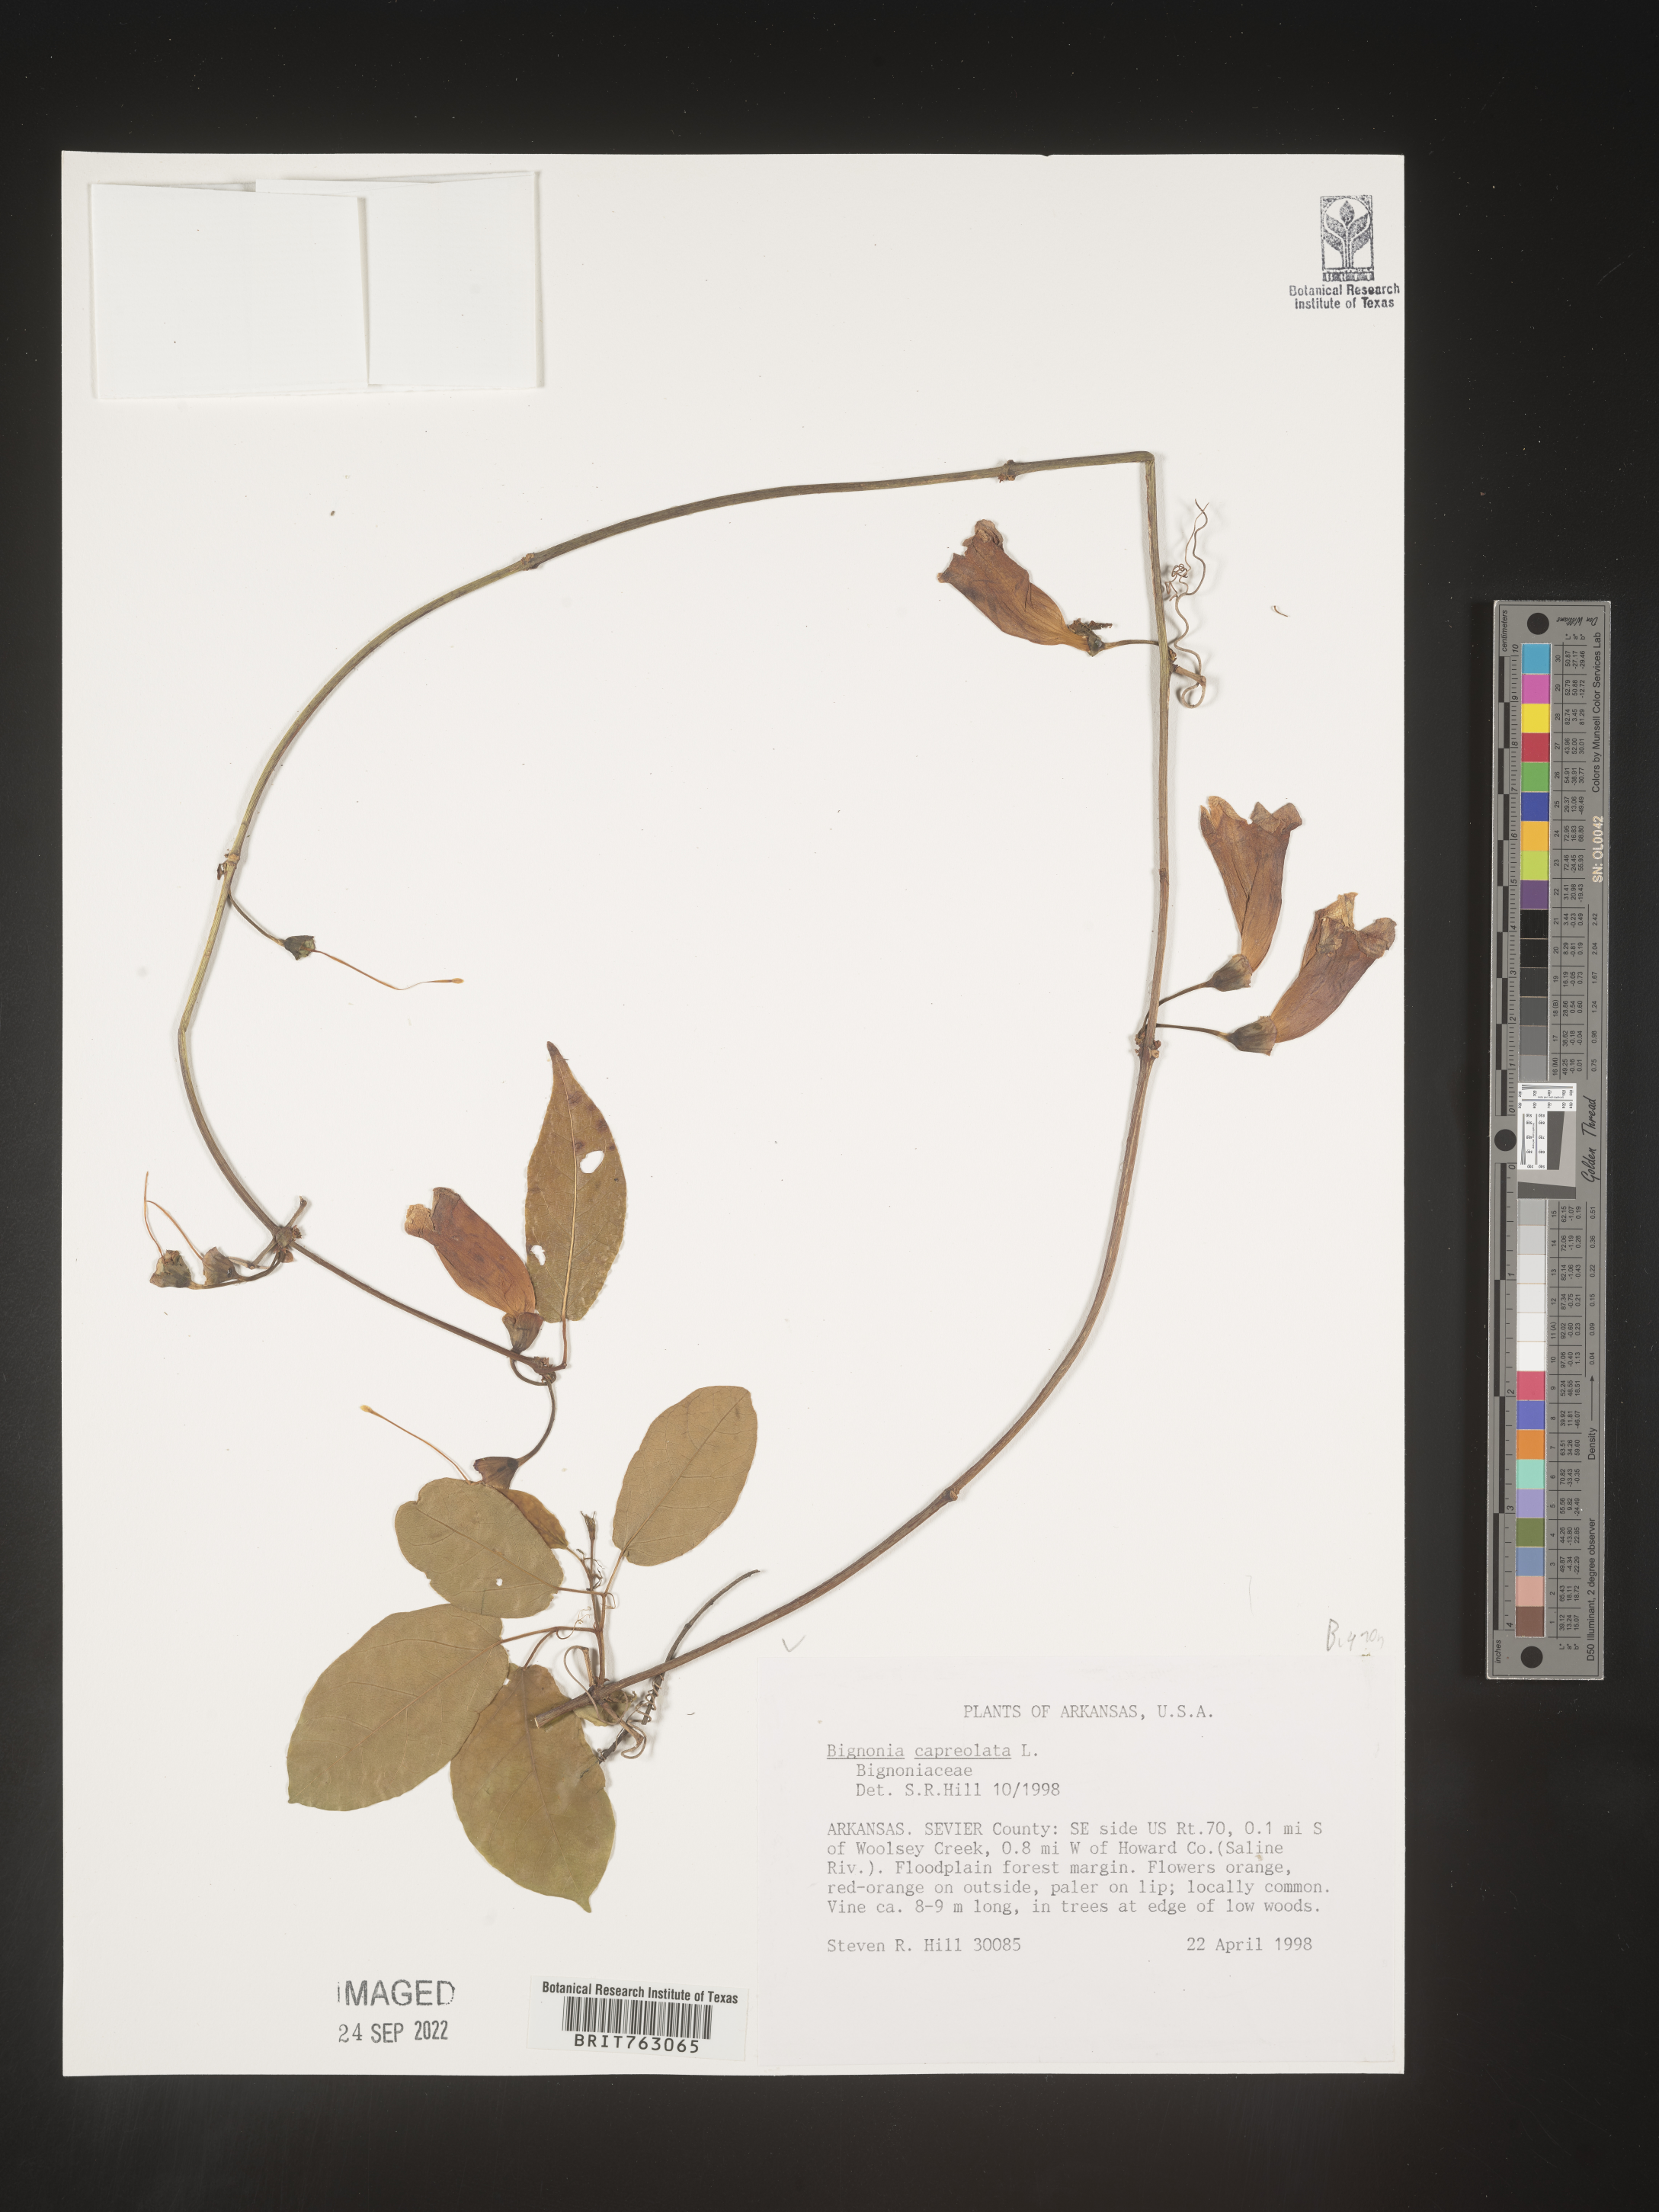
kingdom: Plantae
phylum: Tracheophyta
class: Magnoliopsida
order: Lamiales
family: Bignoniaceae
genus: Bignonia
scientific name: Bignonia capreolata
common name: Crossvine
